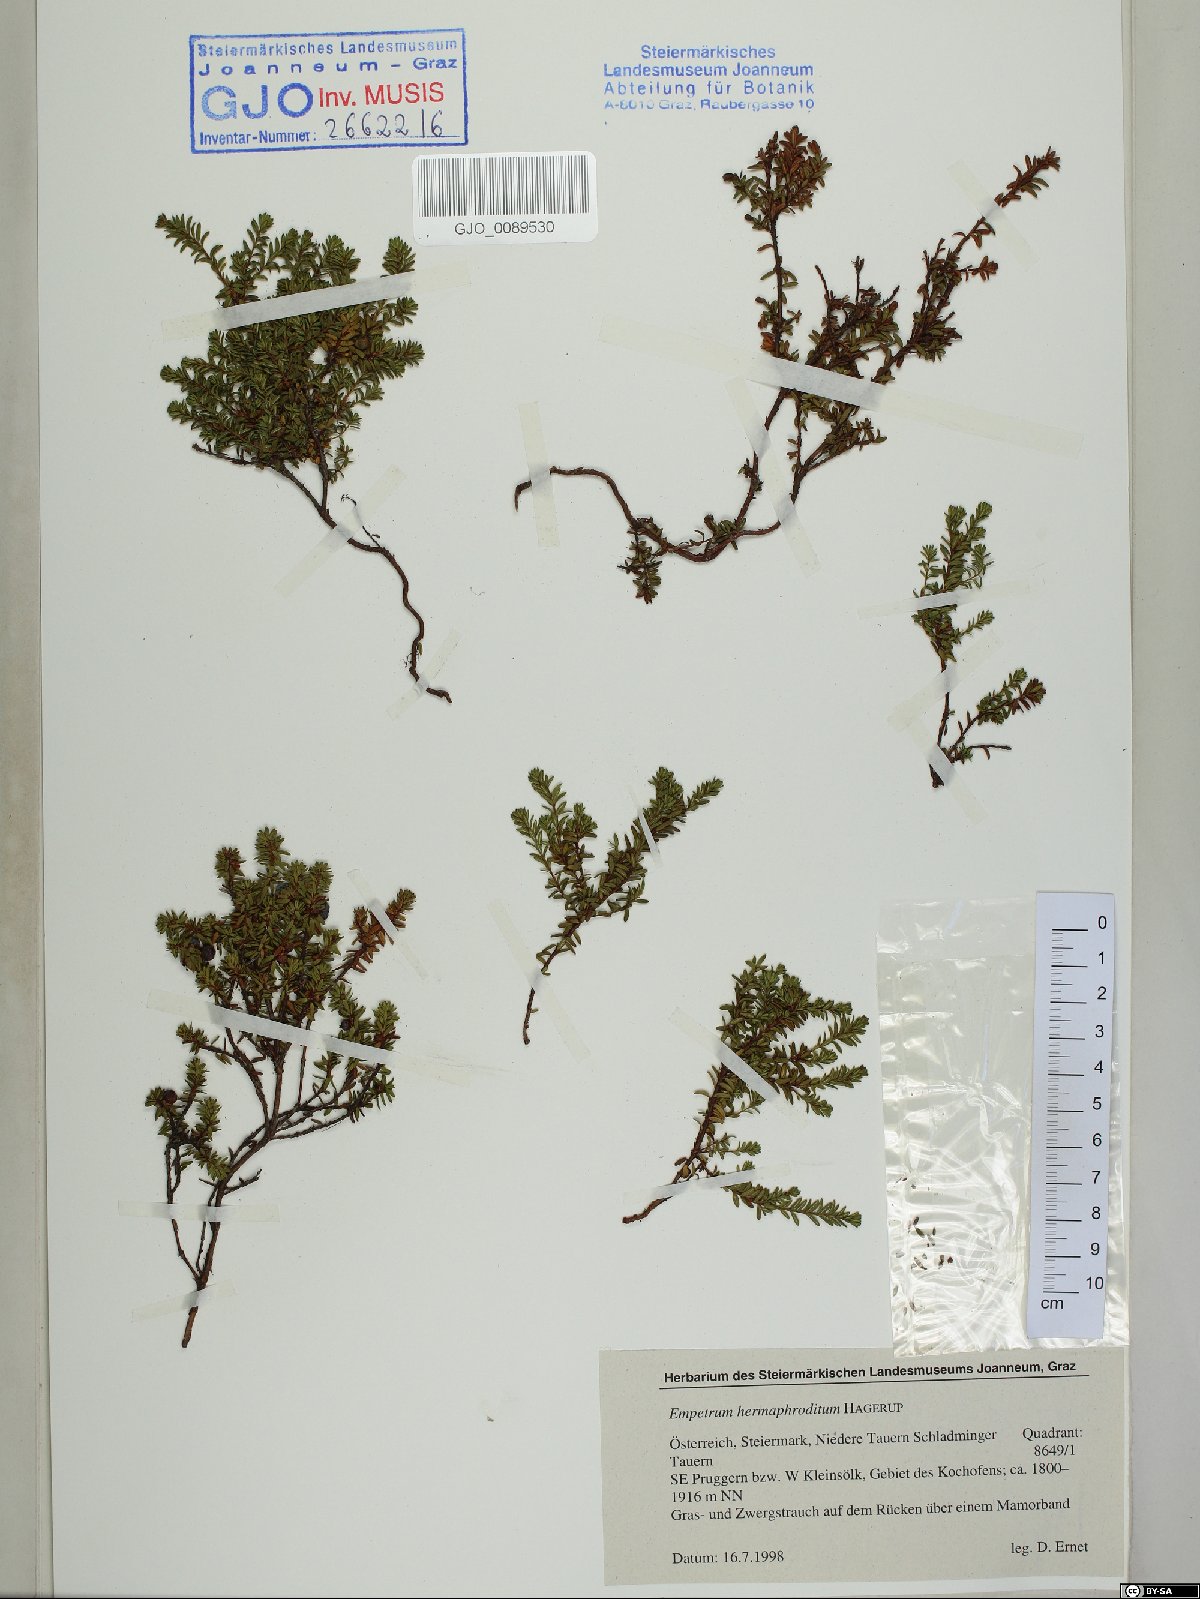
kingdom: Plantae
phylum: Tracheophyta
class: Magnoliopsida
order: Ericales
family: Ericaceae
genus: Empetrum
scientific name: Empetrum hermaphroditum
